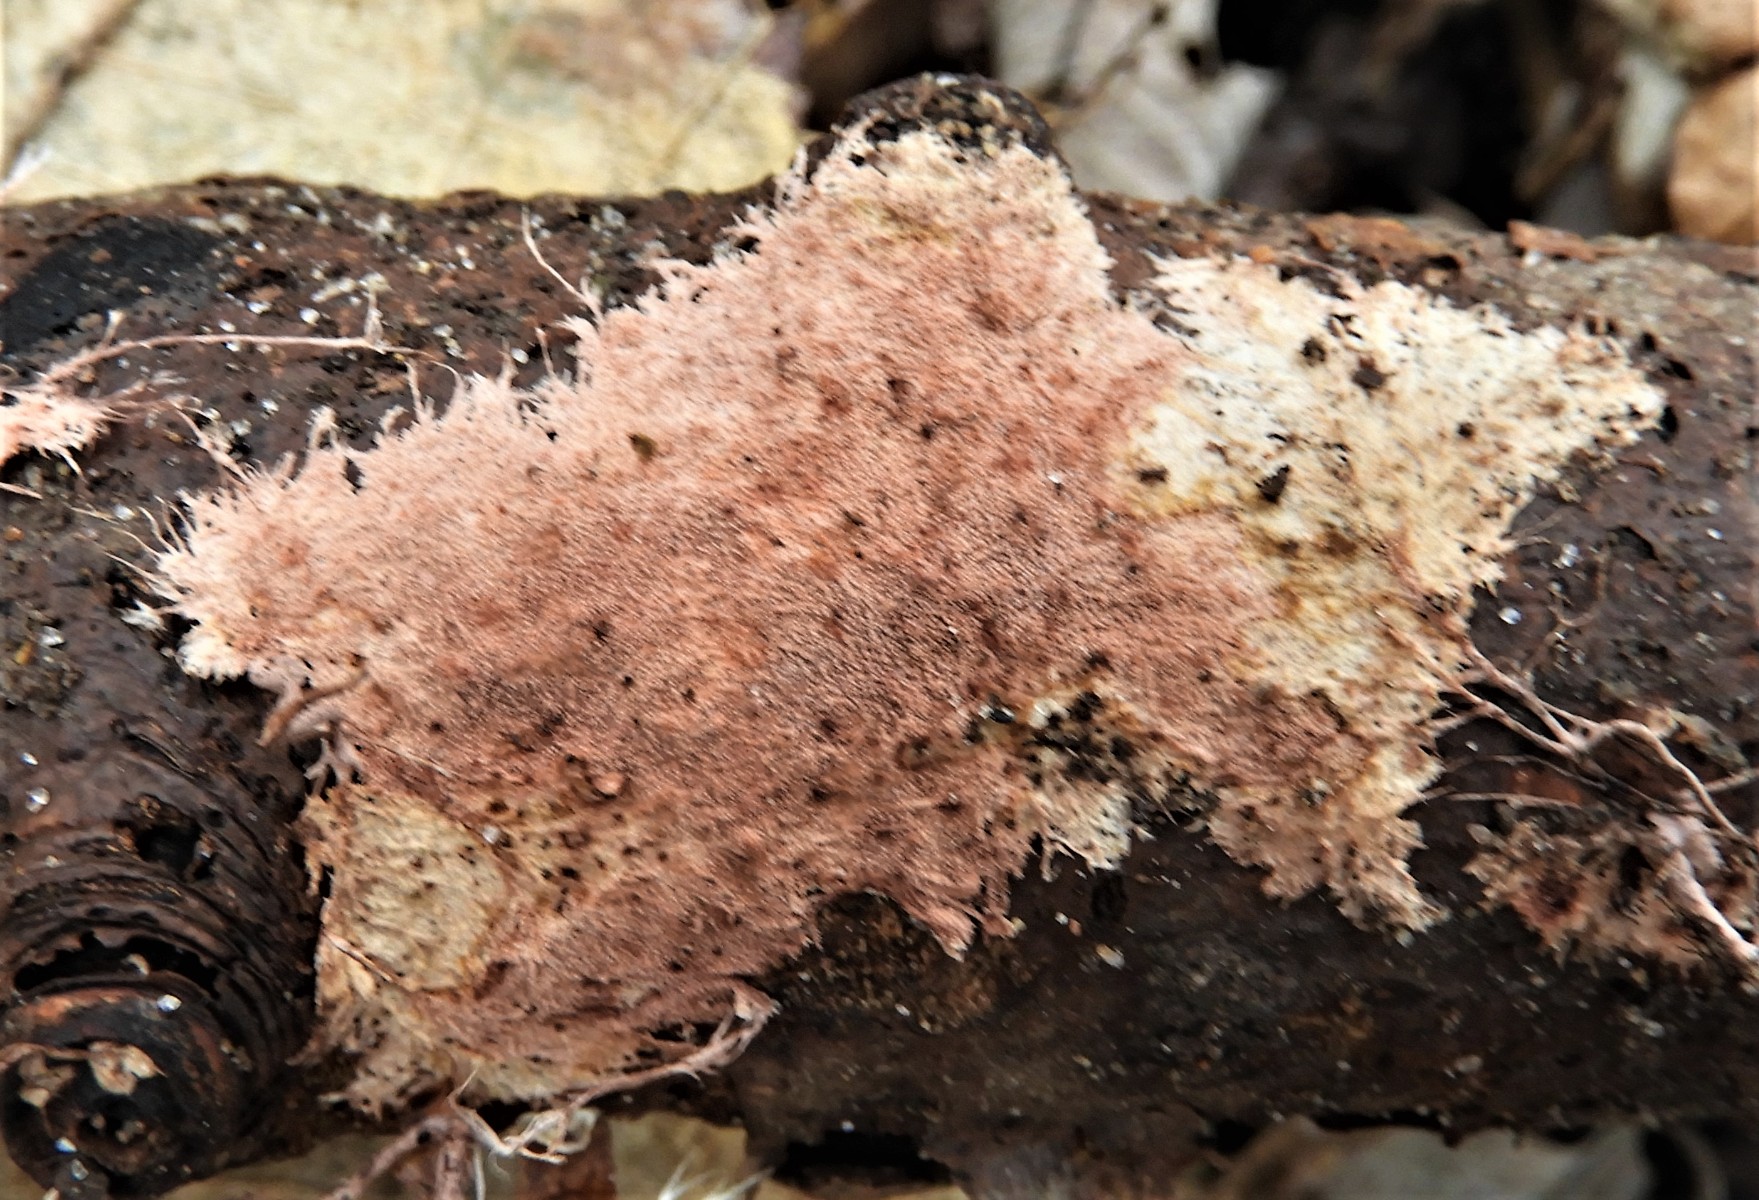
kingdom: Fungi
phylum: Basidiomycota
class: Agaricomycetes
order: Polyporales
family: Steccherinaceae
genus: Steccherinum
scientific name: Steccherinum fimbriatum
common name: trådet skønpig
